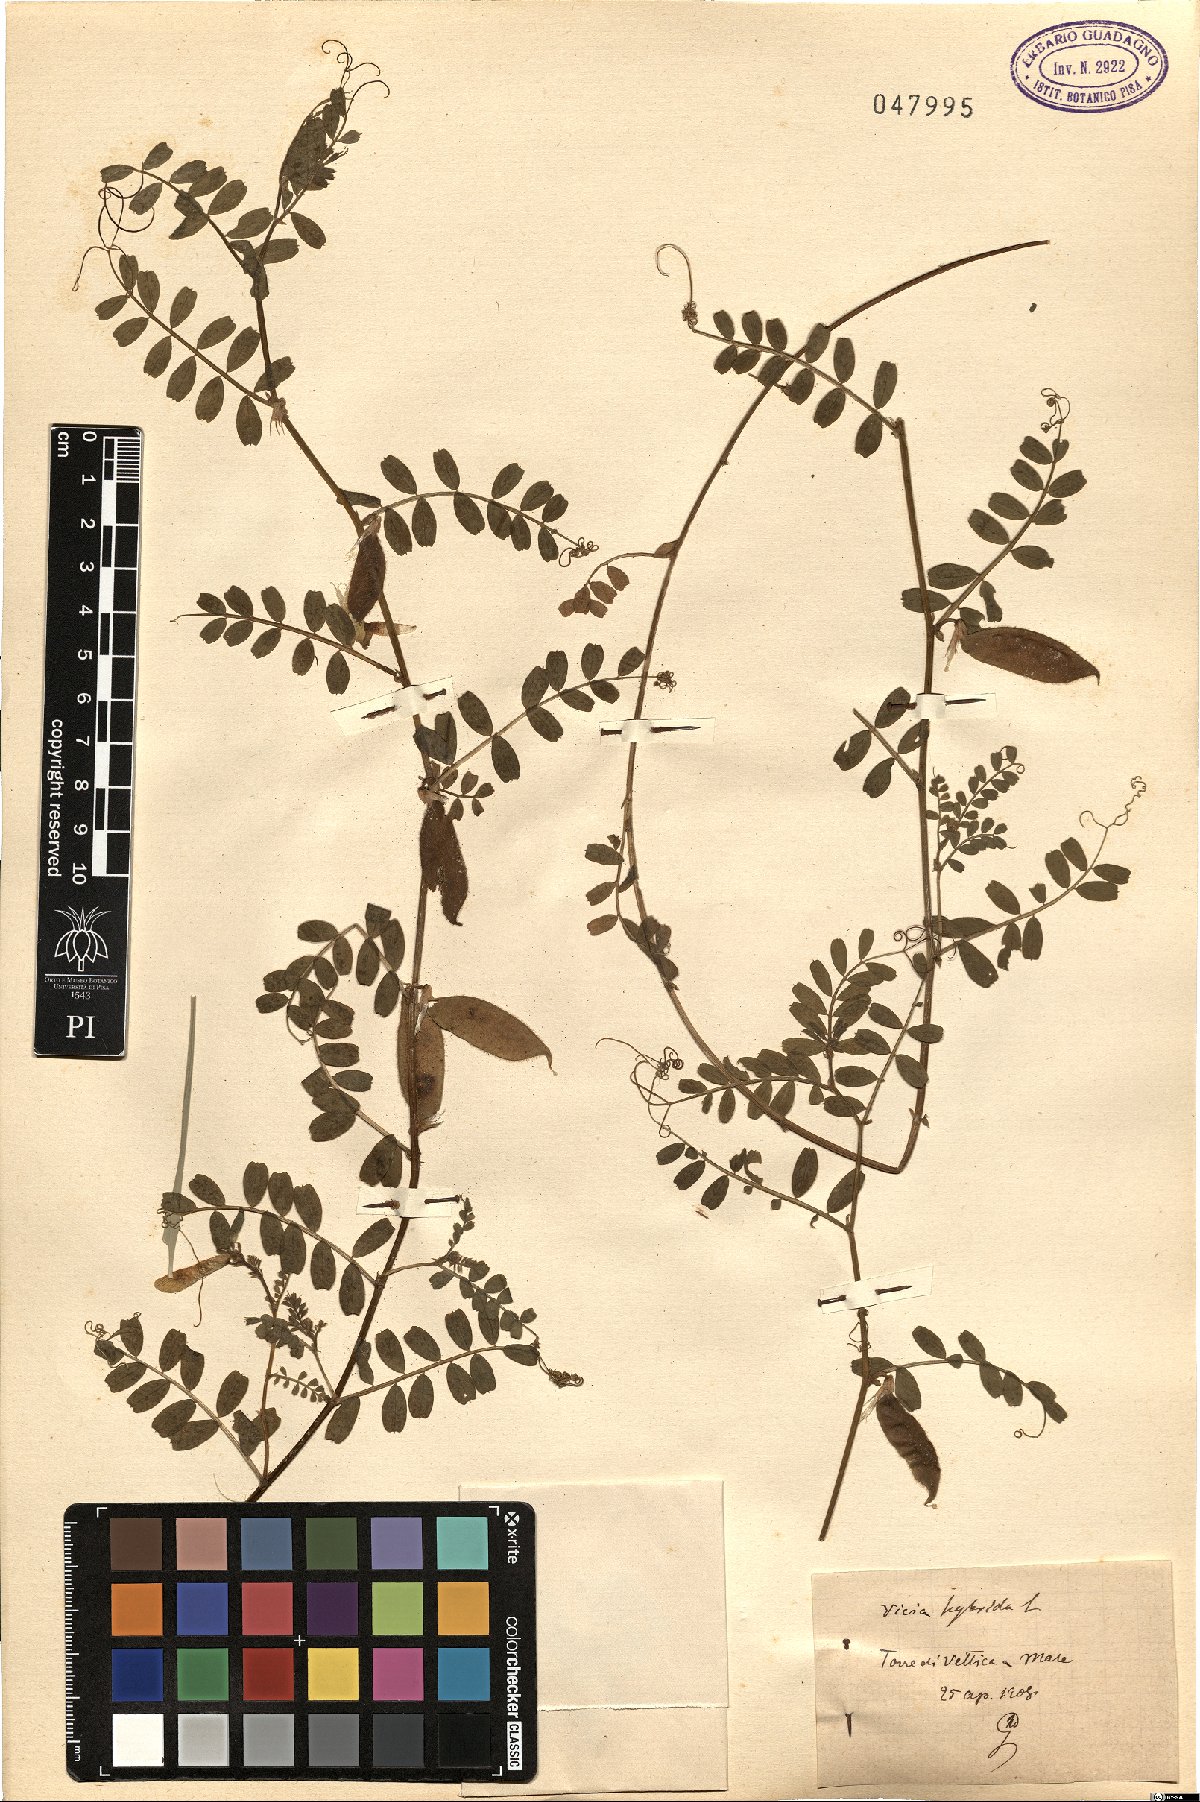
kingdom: Plantae
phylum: Tracheophyta
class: Magnoliopsida
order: Fabales
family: Fabaceae
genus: Vicia
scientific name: Vicia hybrida
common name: Hairy yellow vetch
